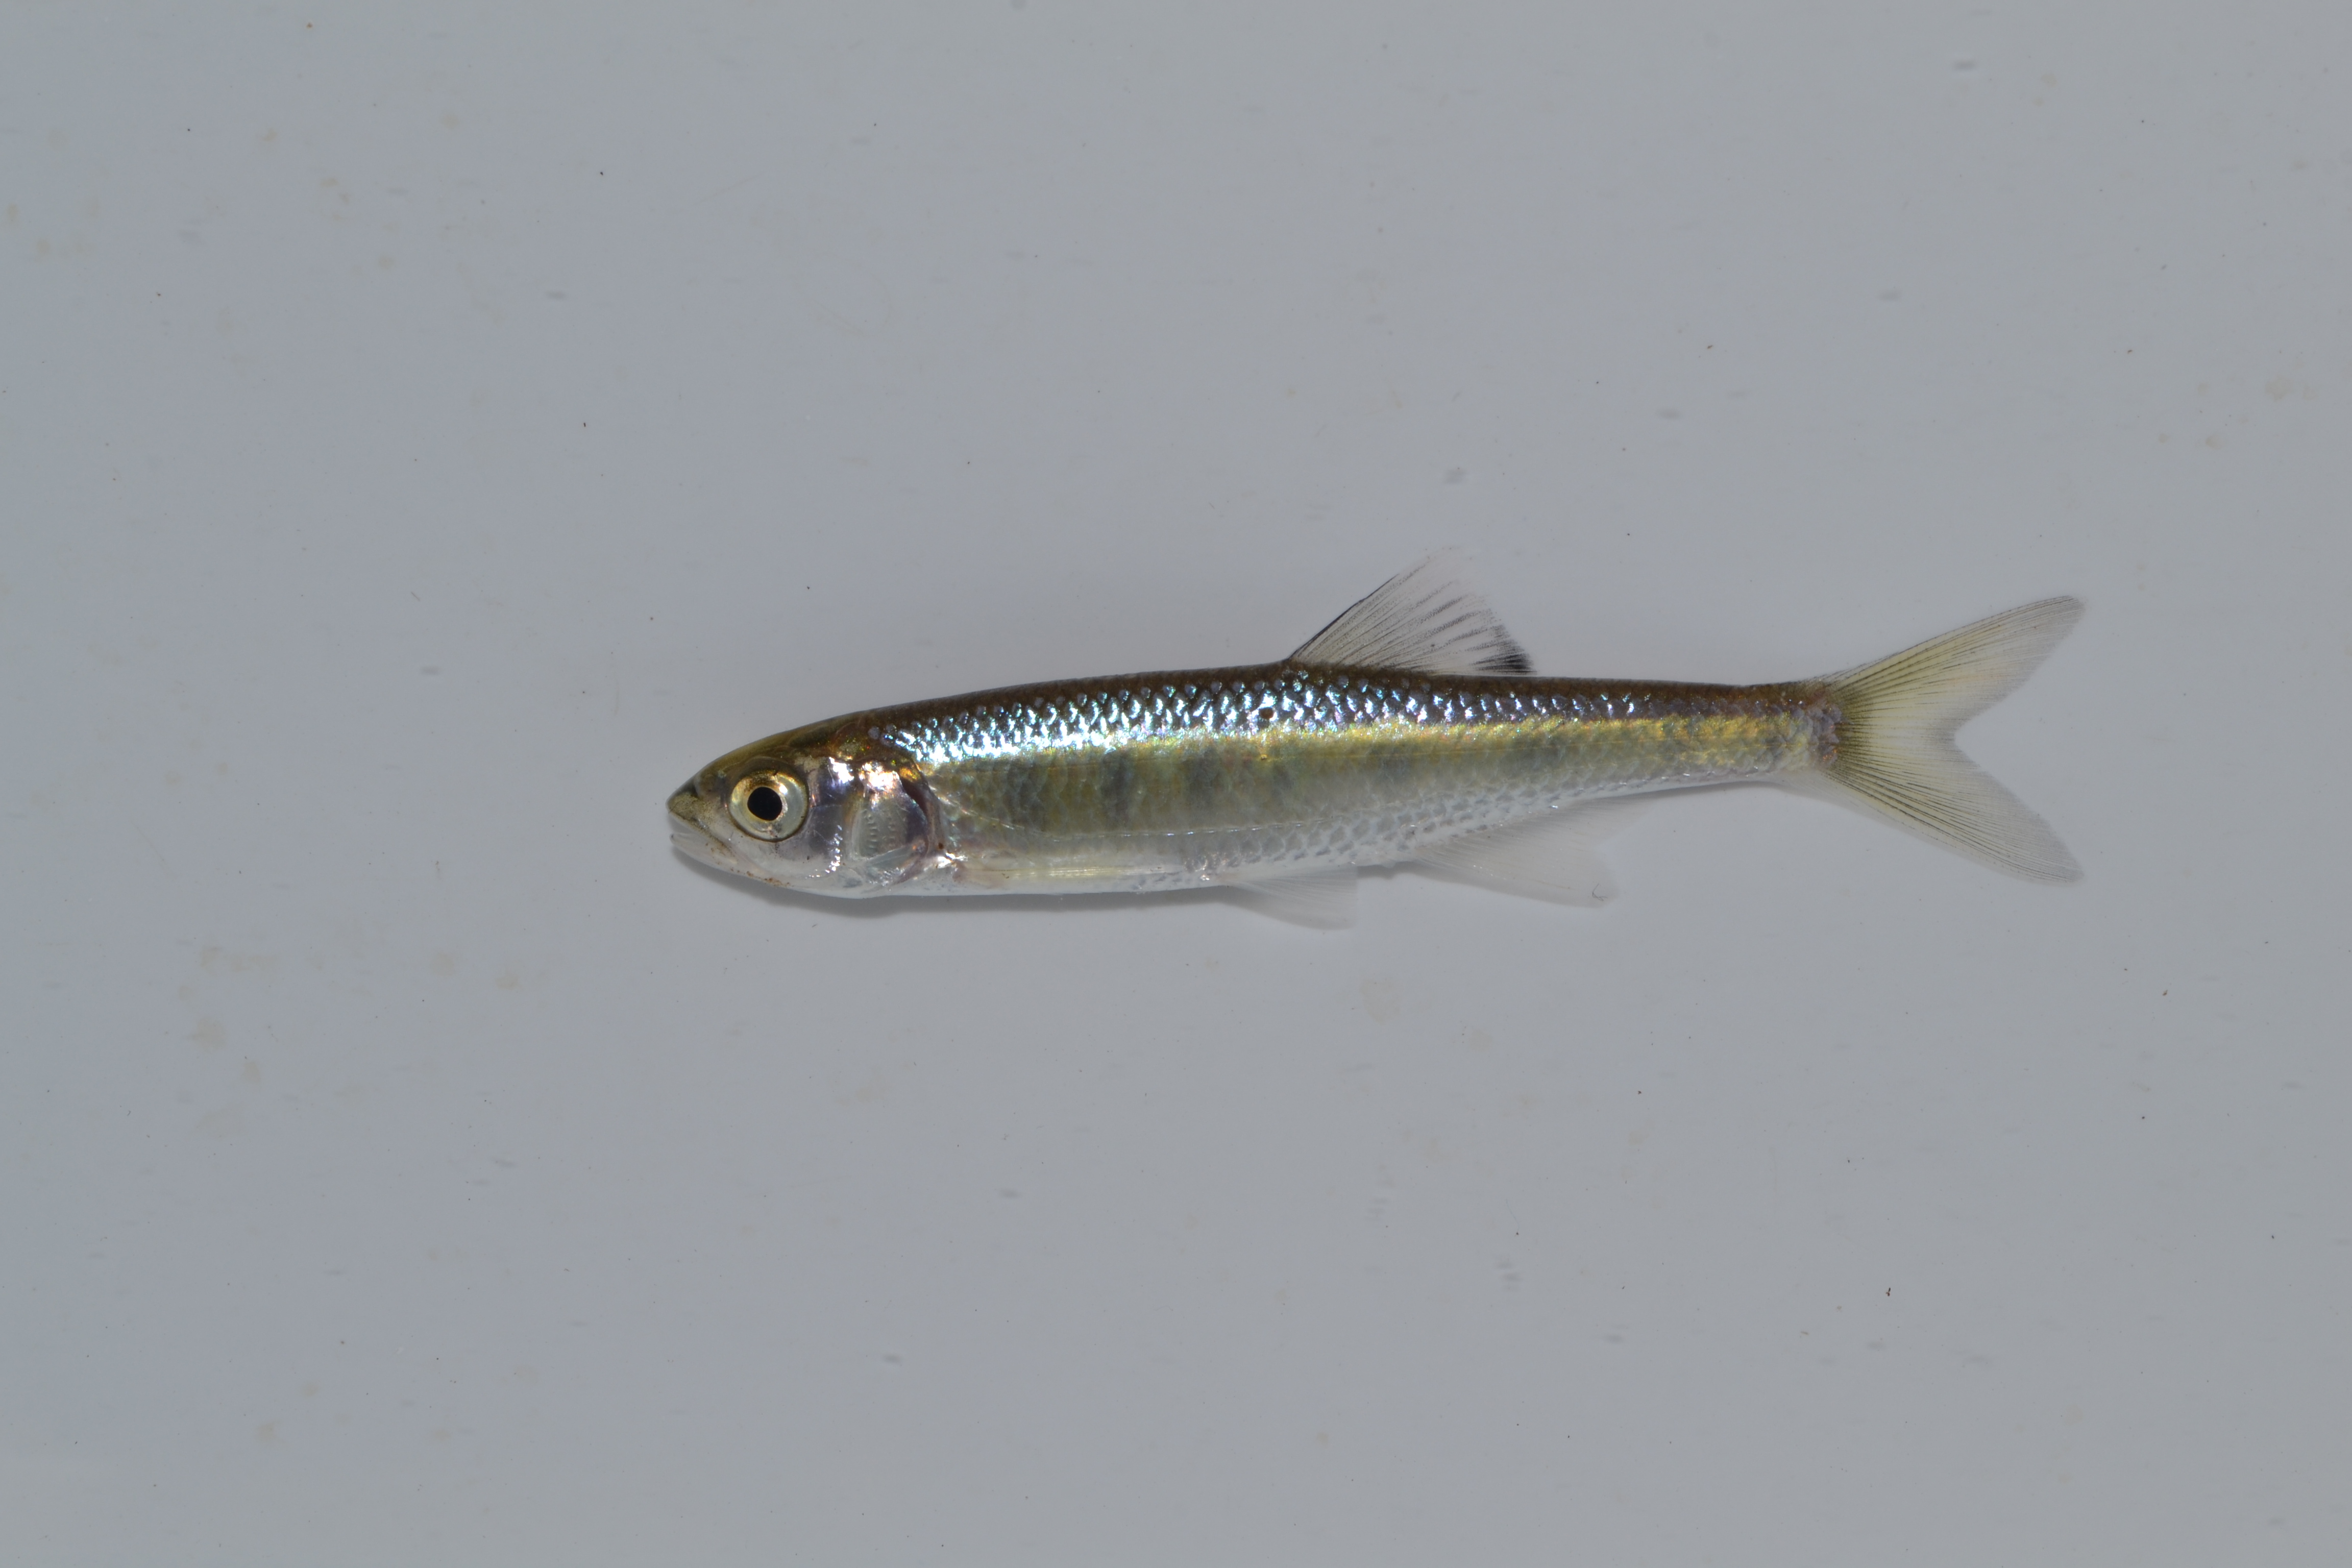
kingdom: Animalia
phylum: Chordata
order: Cypriniformes
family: Cyprinidae
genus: Opsaridium
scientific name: Opsaridium peringueyi
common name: Southern barred minnow
